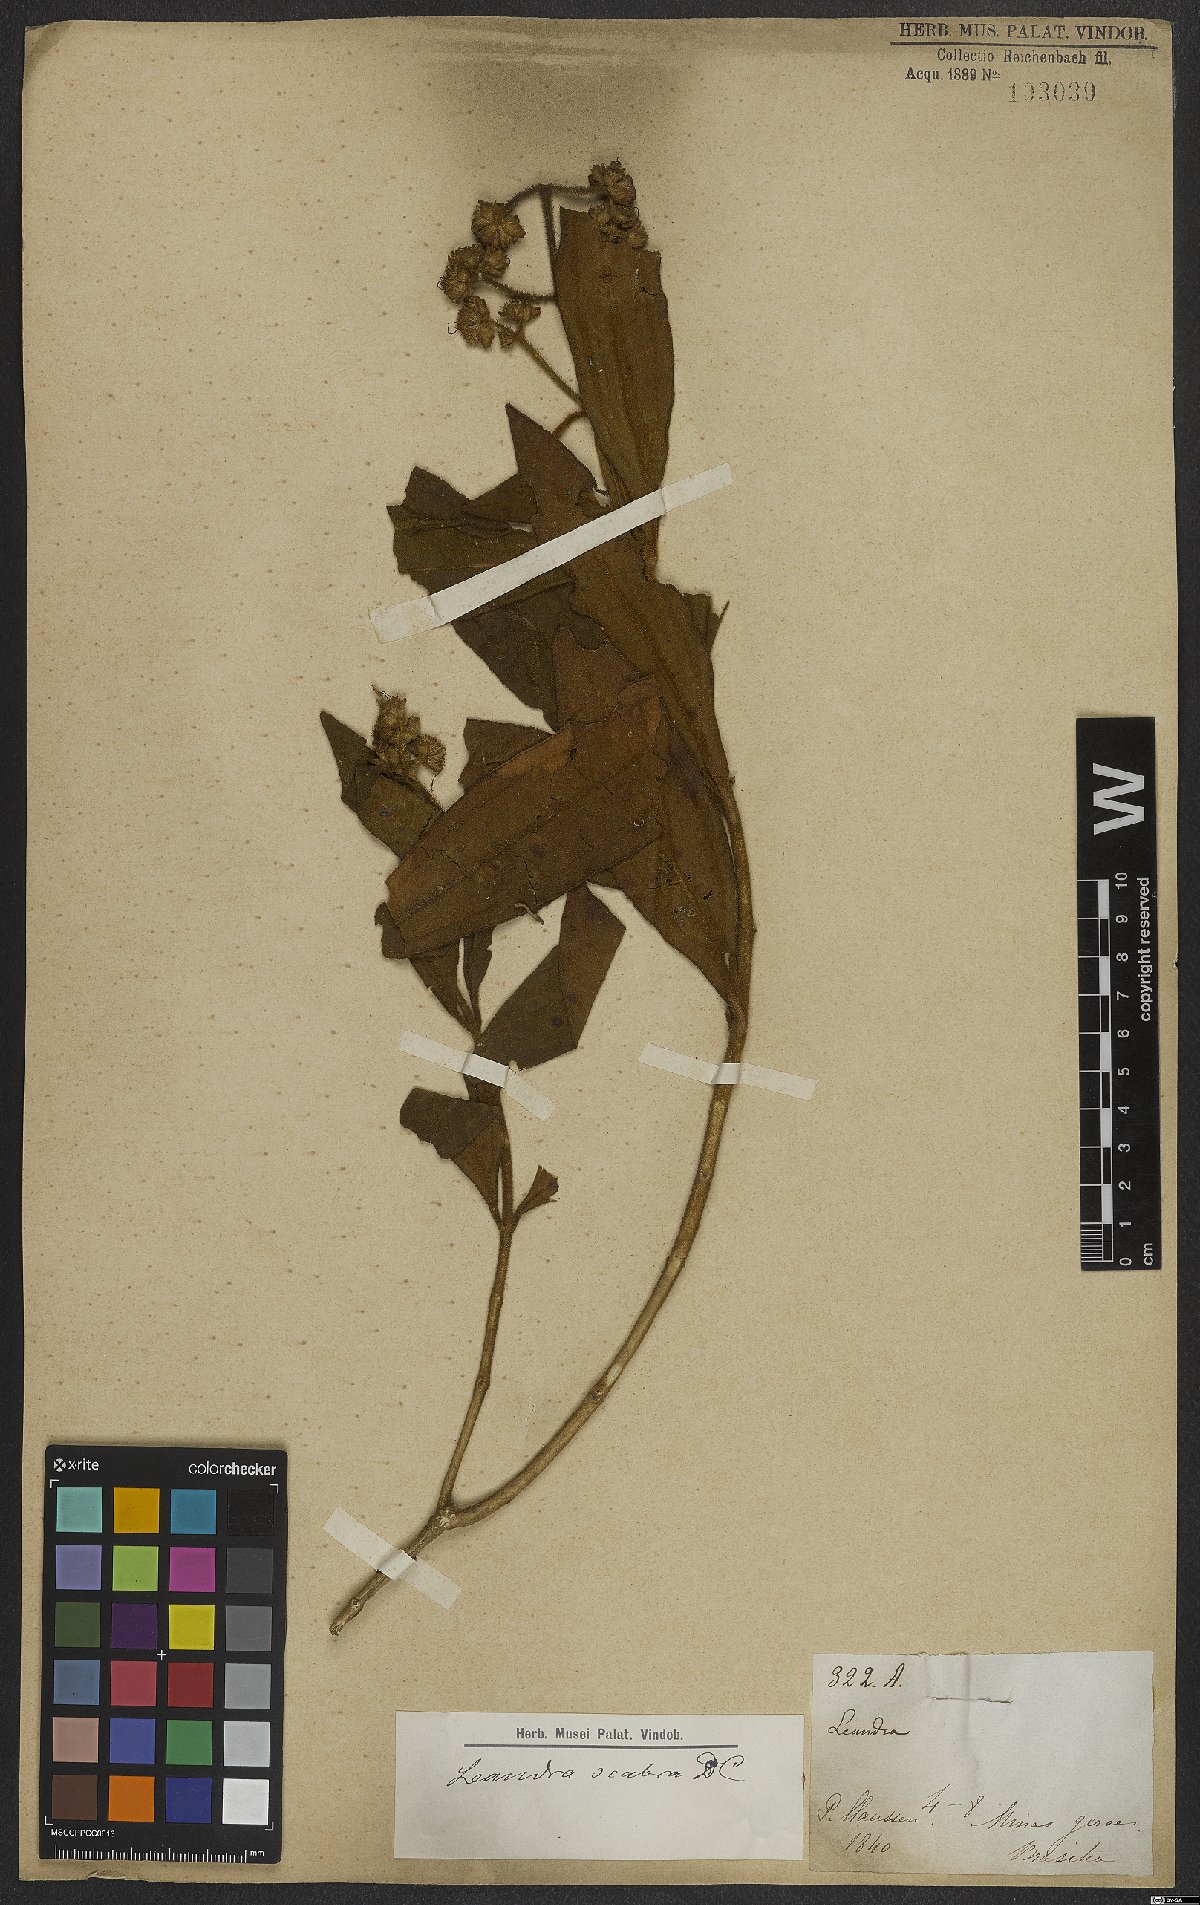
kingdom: Plantae
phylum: Tracheophyta
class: Magnoliopsida
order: Myrtales
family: Melastomataceae
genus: Miconia
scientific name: Miconia melastomoides
